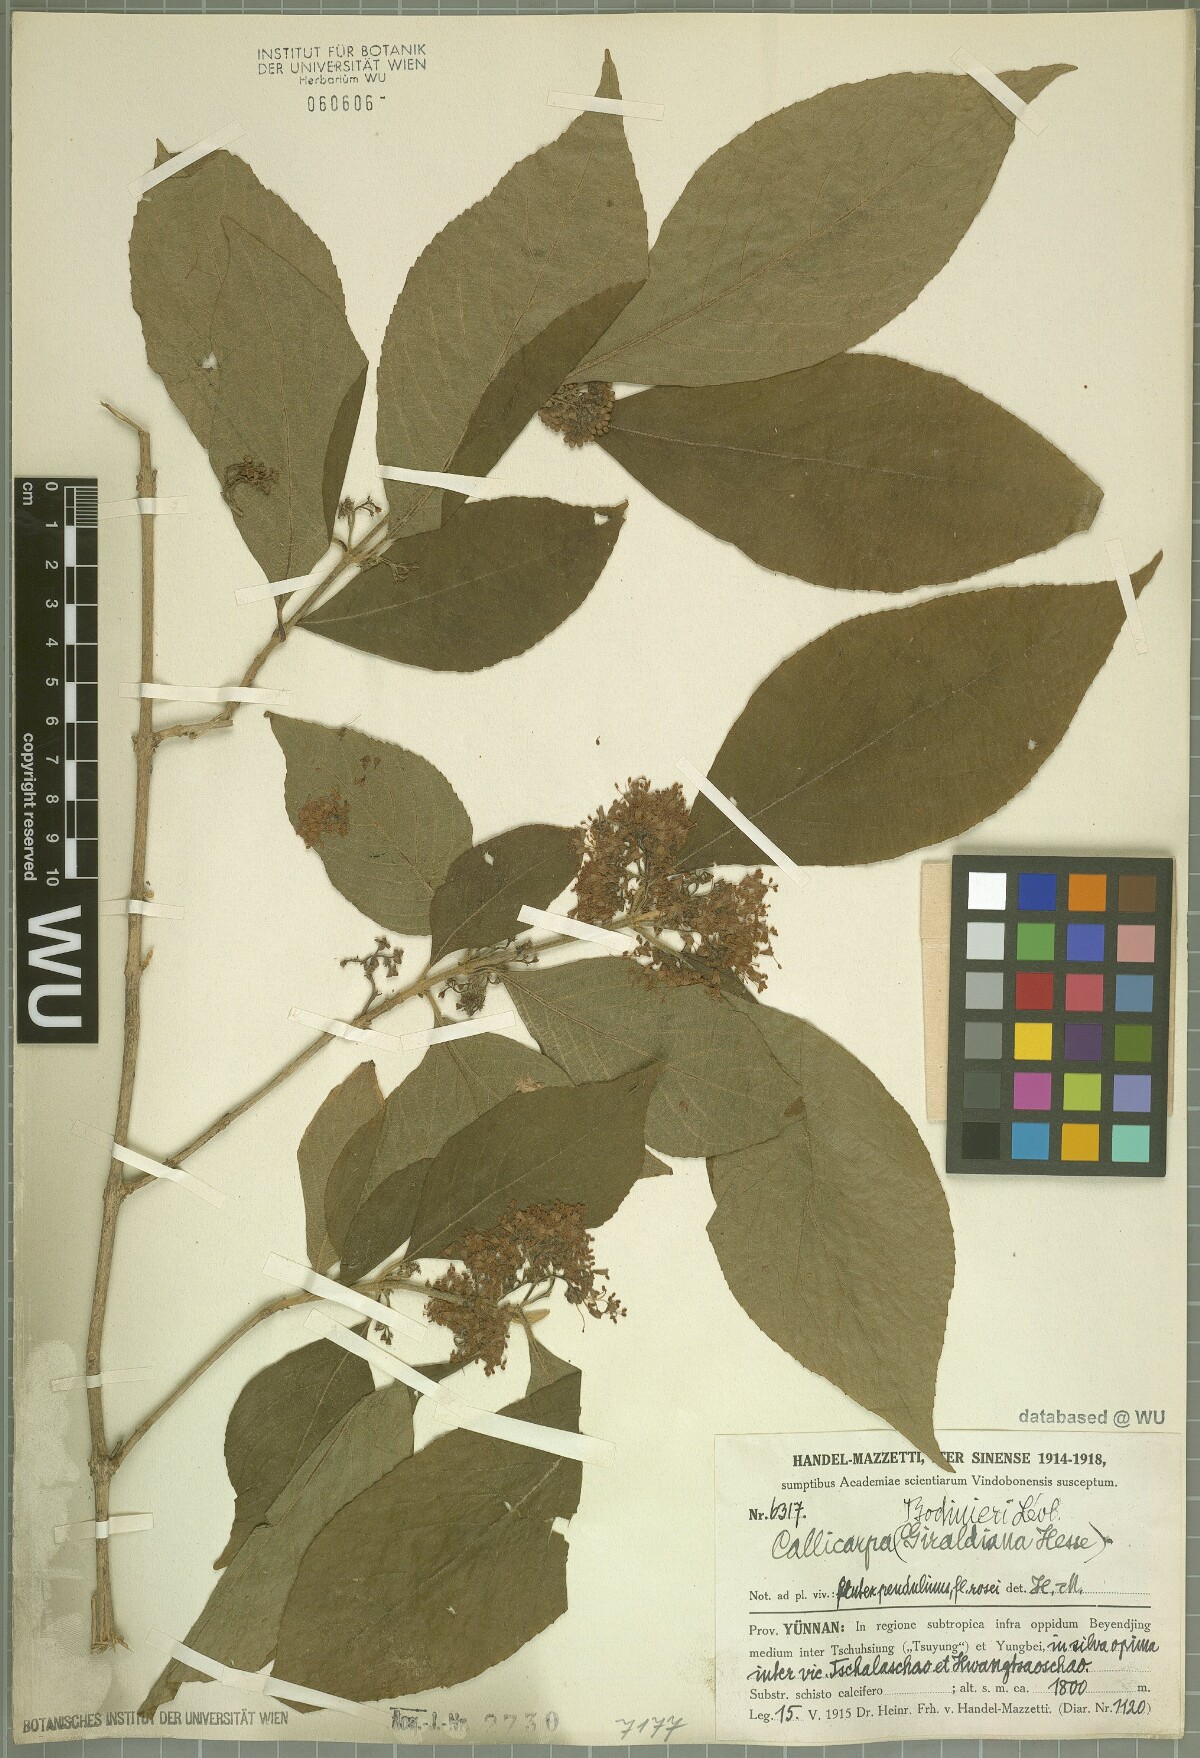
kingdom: Plantae
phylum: Tracheophyta
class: Magnoliopsida
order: Lamiales
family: Lamiaceae
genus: Callicarpa
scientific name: Callicarpa bodinieri
